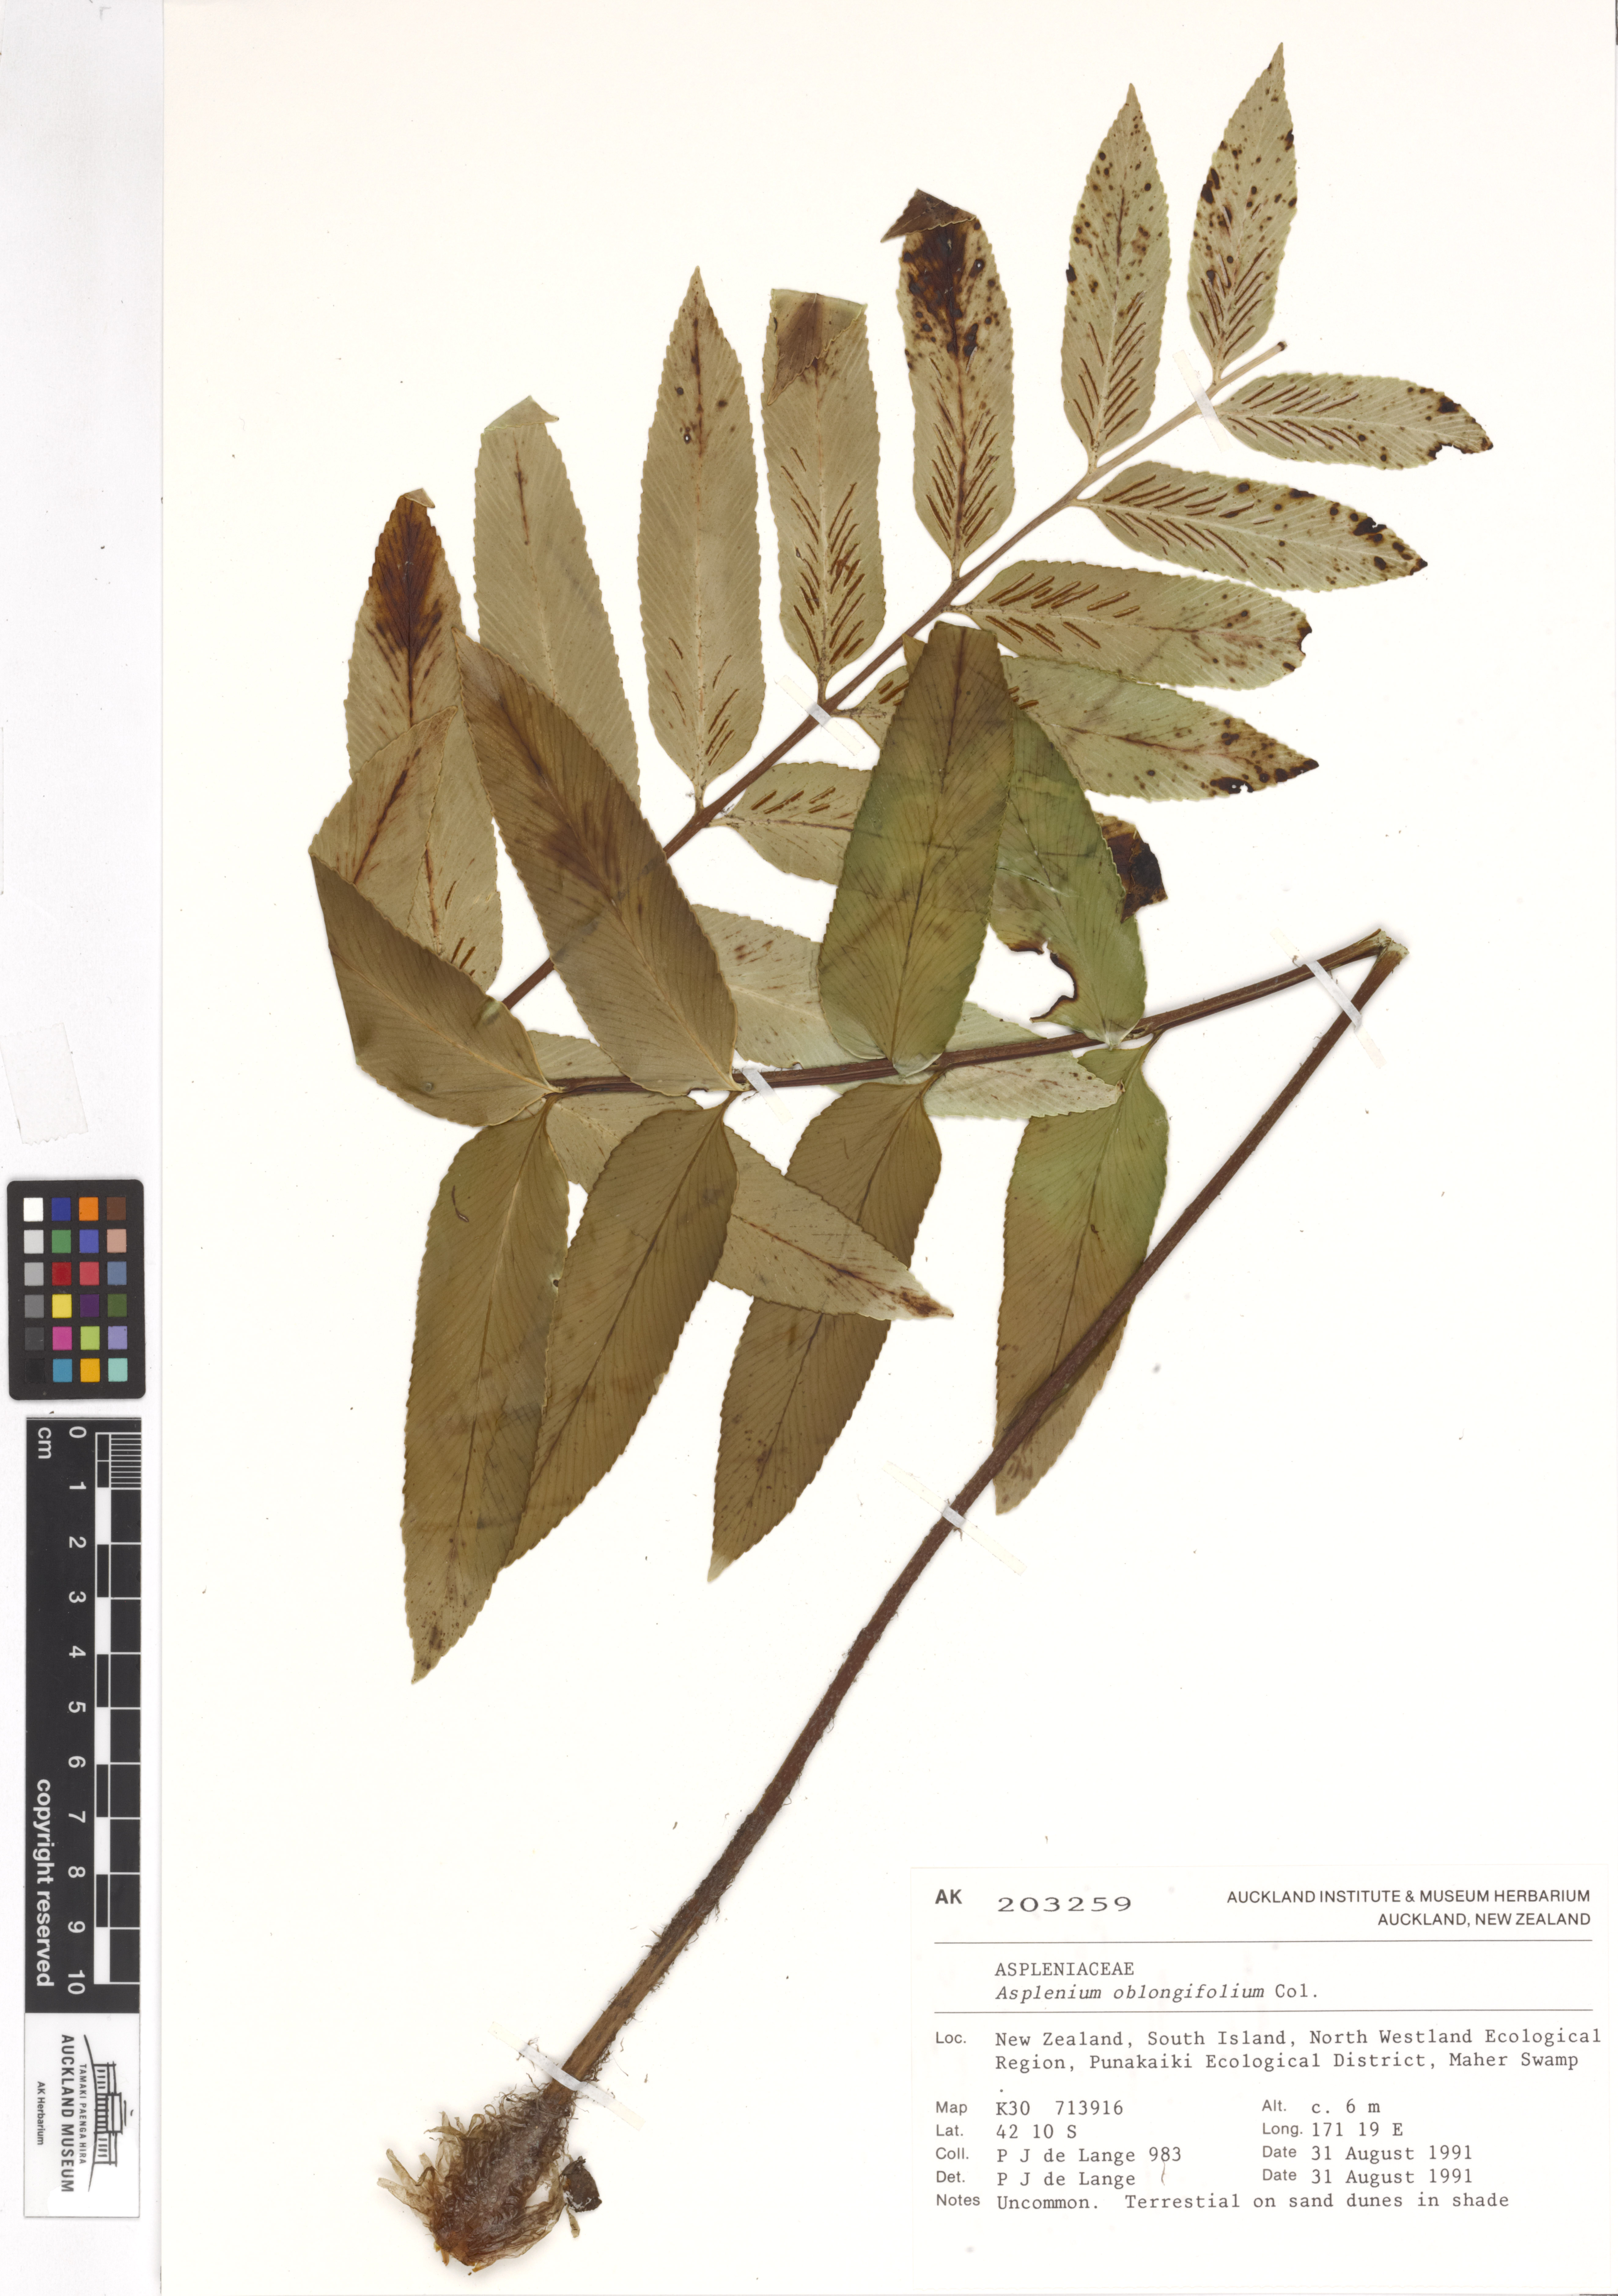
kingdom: Plantae
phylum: Tracheophyta
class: Polypodiopsida
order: Polypodiales
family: Aspleniaceae
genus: Asplenium
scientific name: Asplenium oblongifolium
